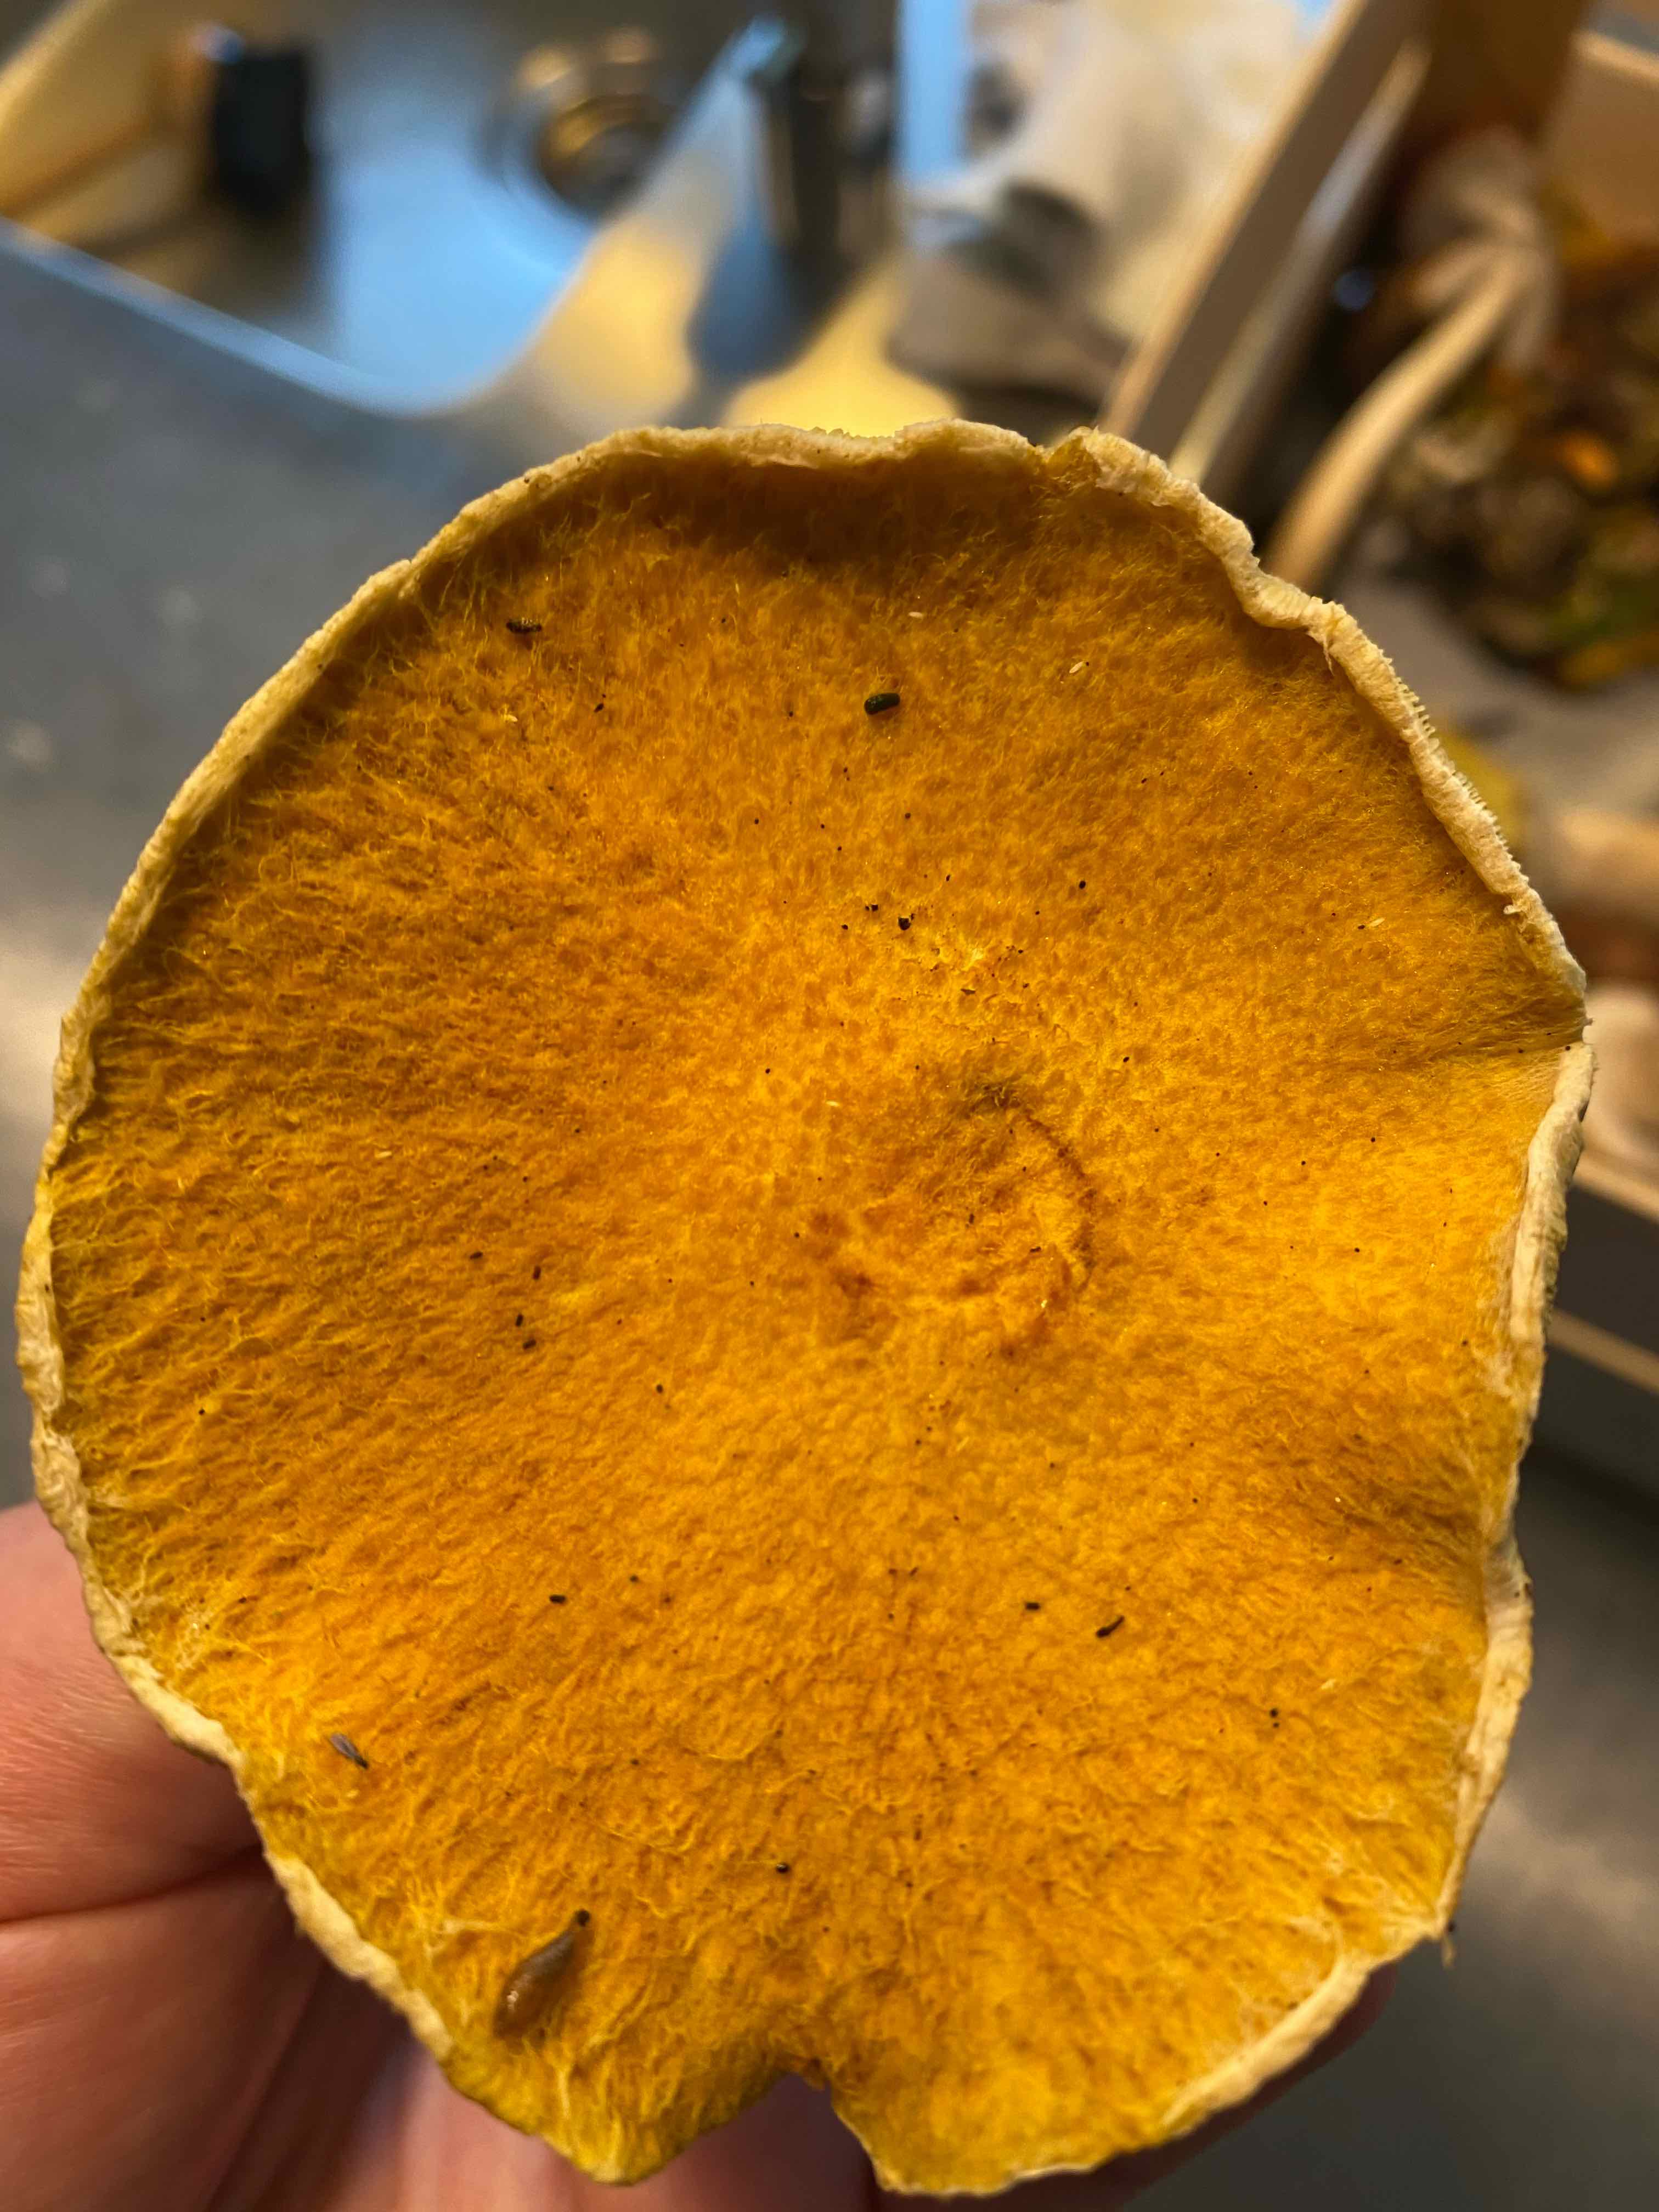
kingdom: Fungi
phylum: Basidiomycota
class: Agaricomycetes
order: Boletales
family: Suillaceae
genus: Suillus
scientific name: Suillus cavipes
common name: hulstokket slimrørhat, gul form
